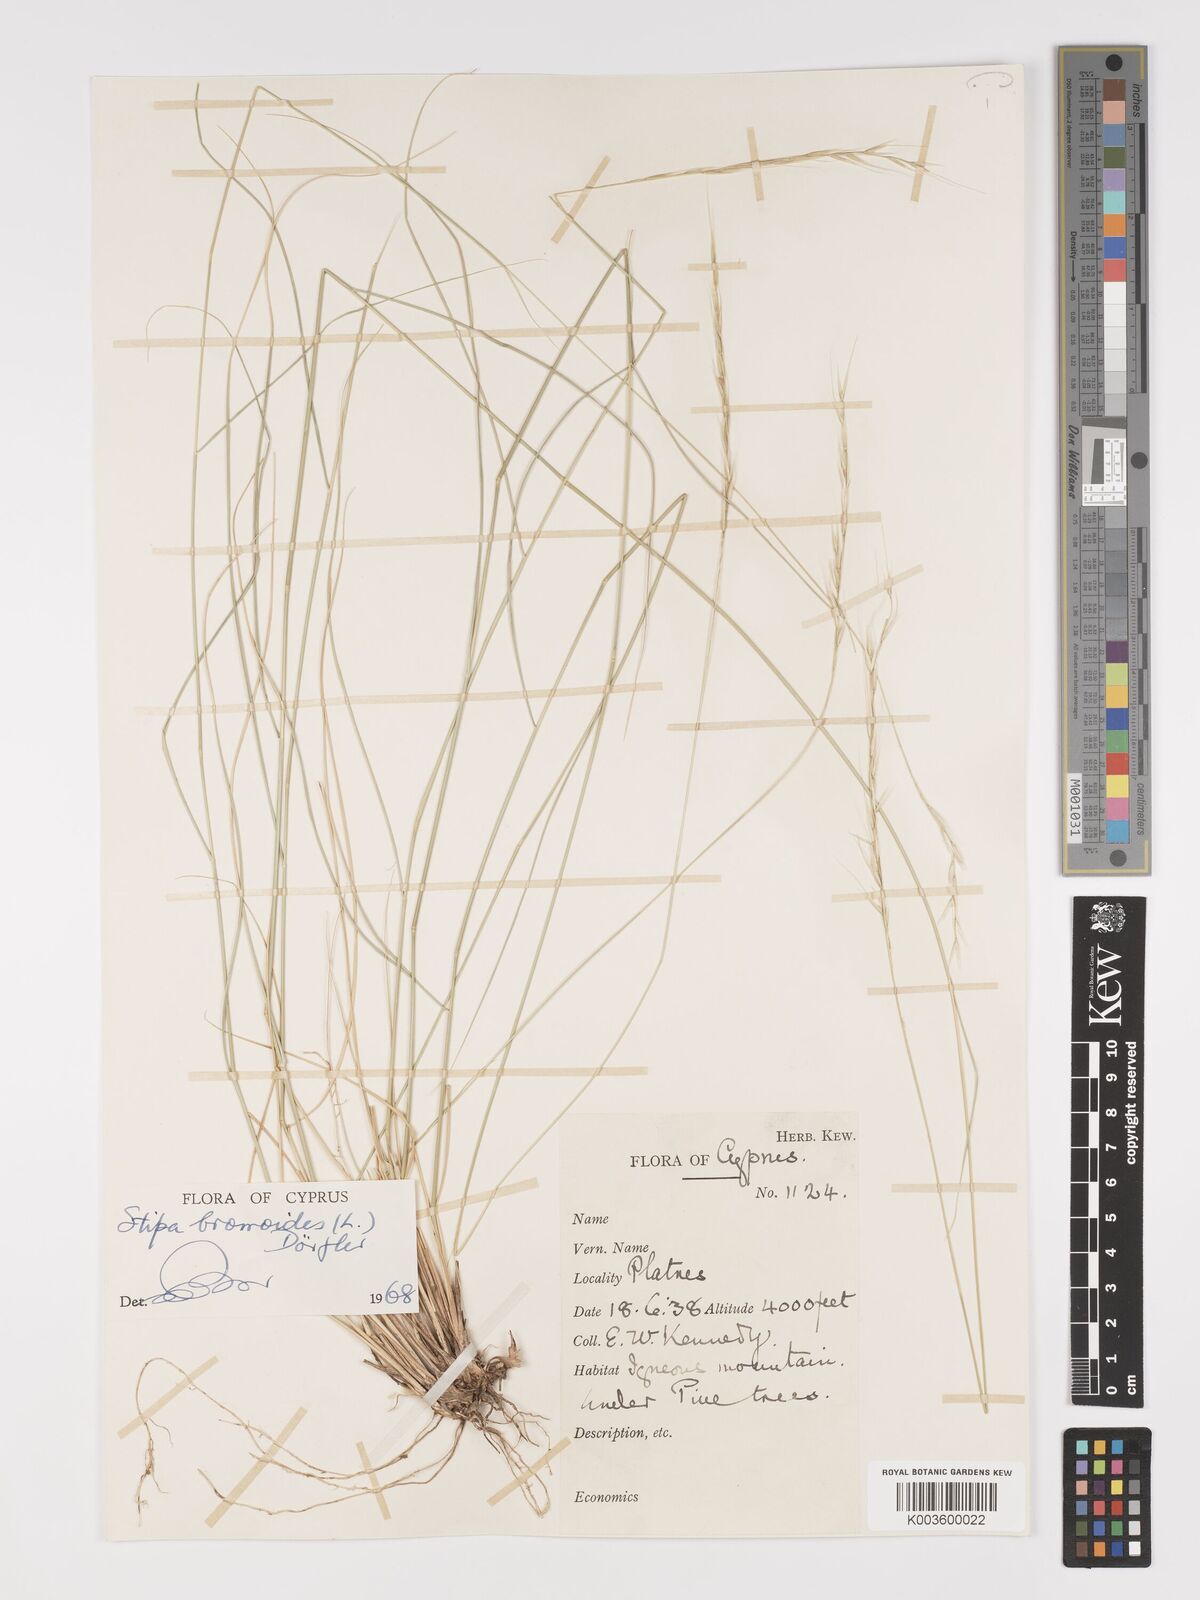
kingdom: Plantae
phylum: Tracheophyta
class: Liliopsida
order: Poales
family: Poaceae
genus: Achnatherum
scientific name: Achnatherum bromoides
